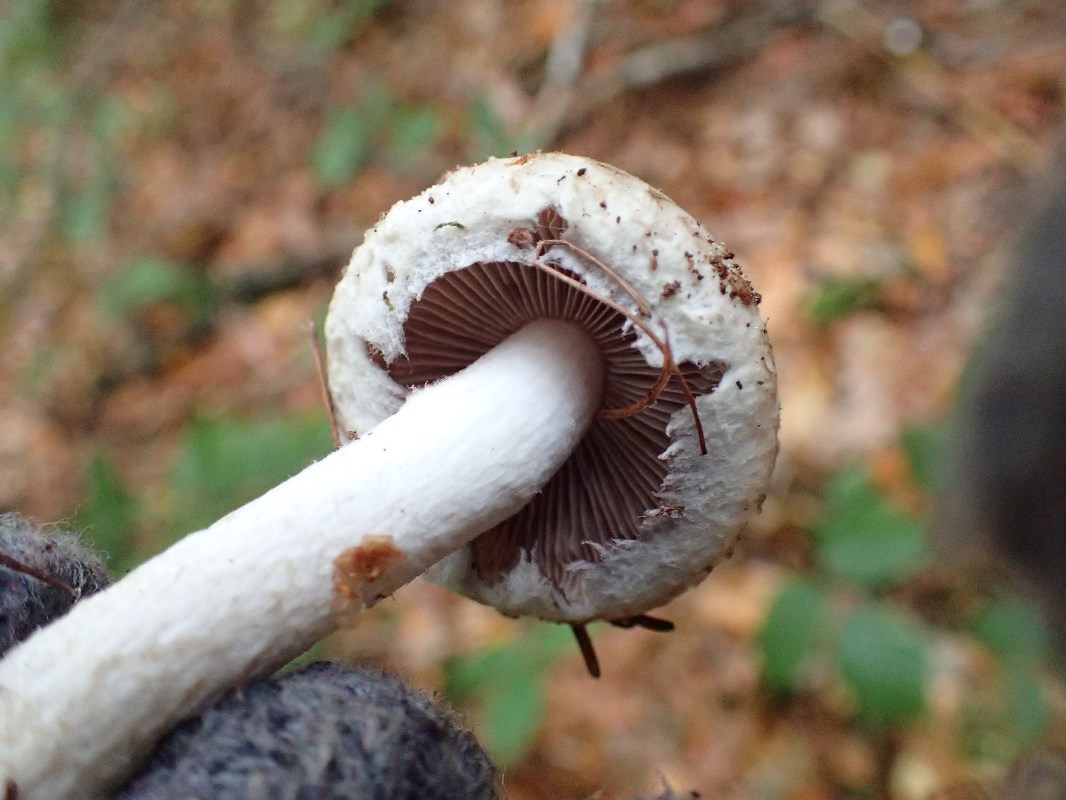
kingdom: Fungi
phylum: Basidiomycota
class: Agaricomycetes
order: Agaricales
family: Psathyrellaceae
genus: Psathyrella
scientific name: Psathyrella cotonea
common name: skællet mørkhat
